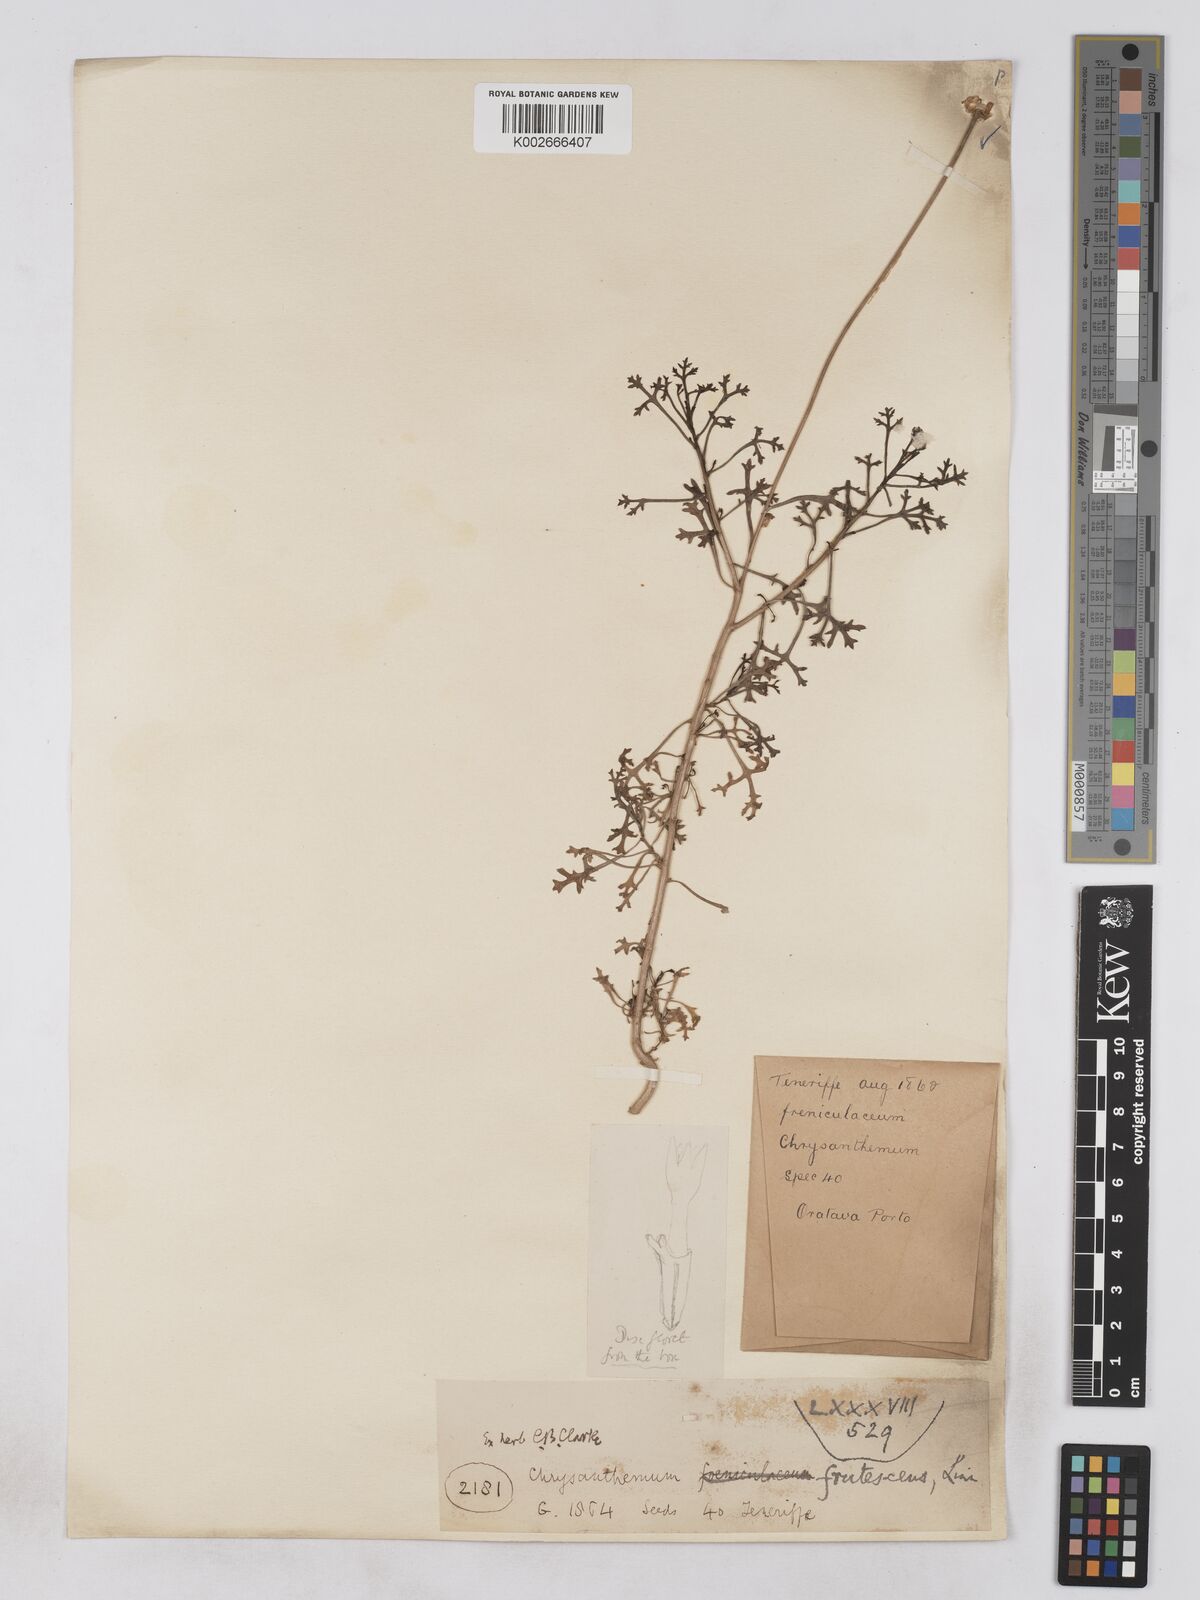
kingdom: Plantae
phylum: Tracheophyta
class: Magnoliopsida
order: Asterales
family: Asteraceae
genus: Argyranthemum
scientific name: Argyranthemum frutescens
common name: Paris daisy
